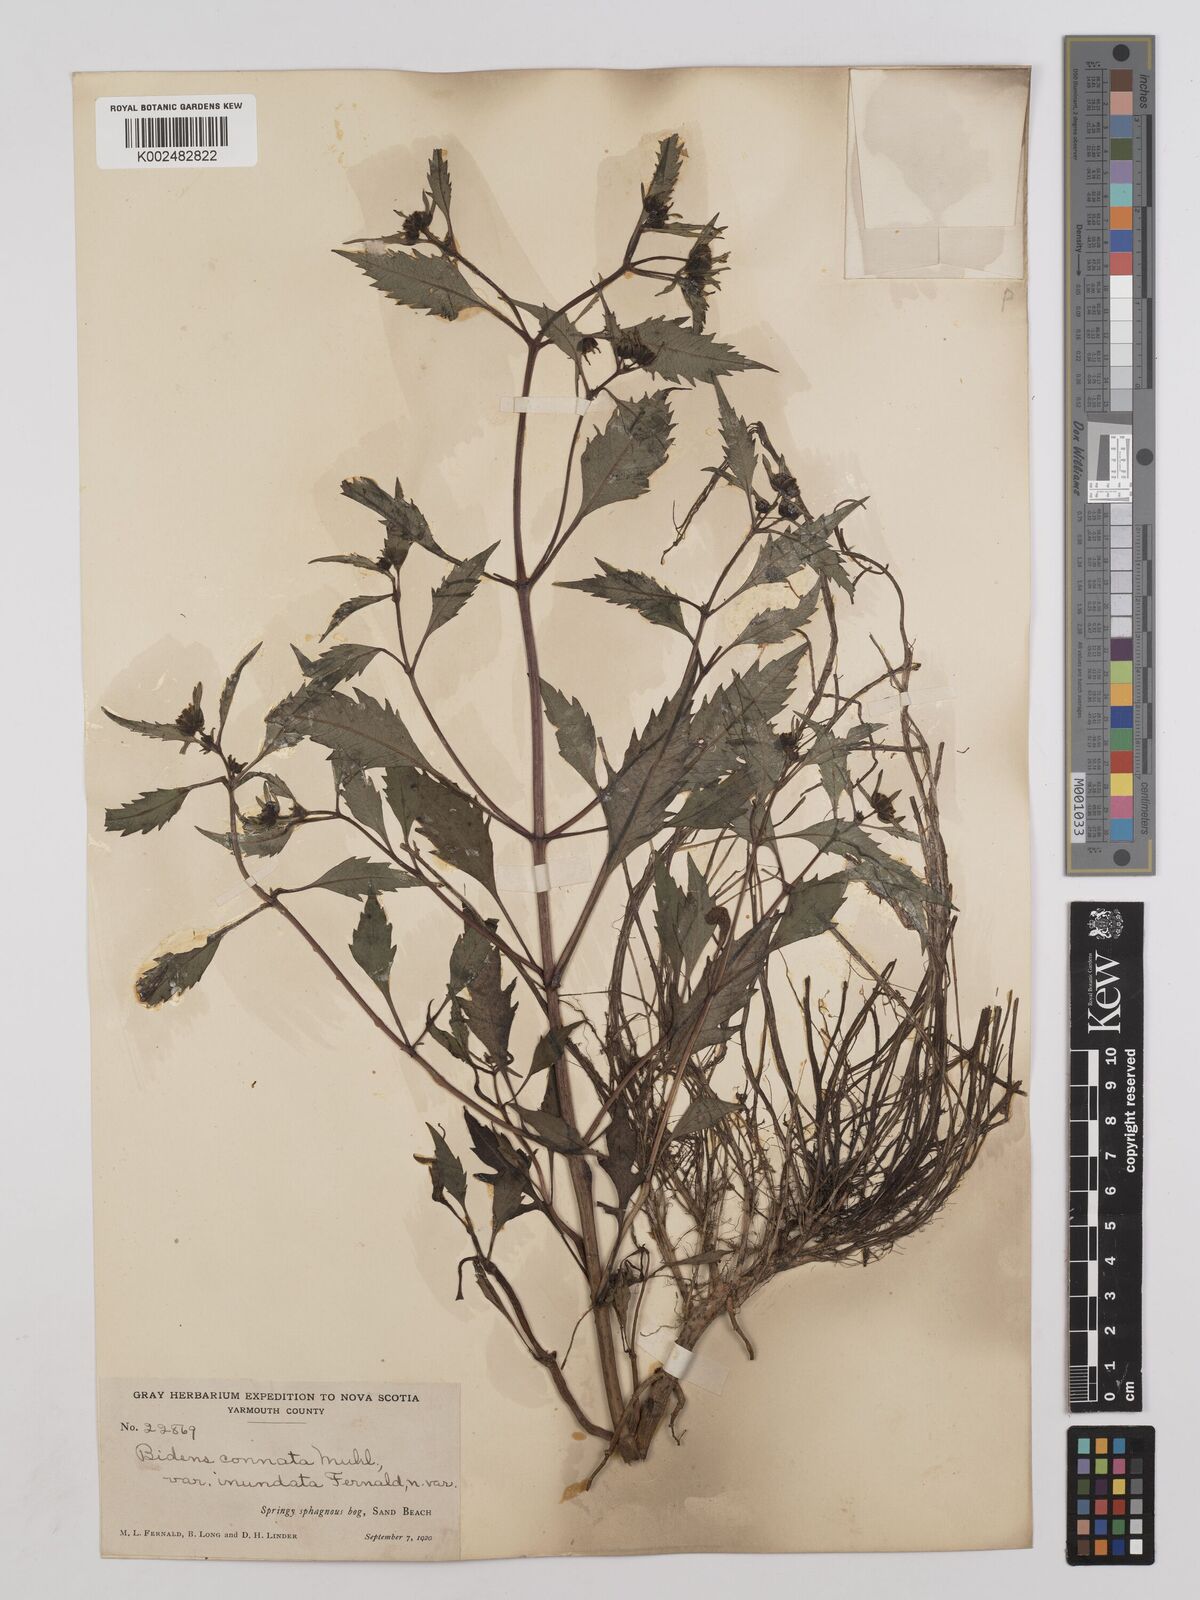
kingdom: Plantae
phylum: Tracheophyta
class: Magnoliopsida
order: Asterales
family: Asteraceae
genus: Bidens
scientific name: Bidens connata
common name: London bur-marigold
